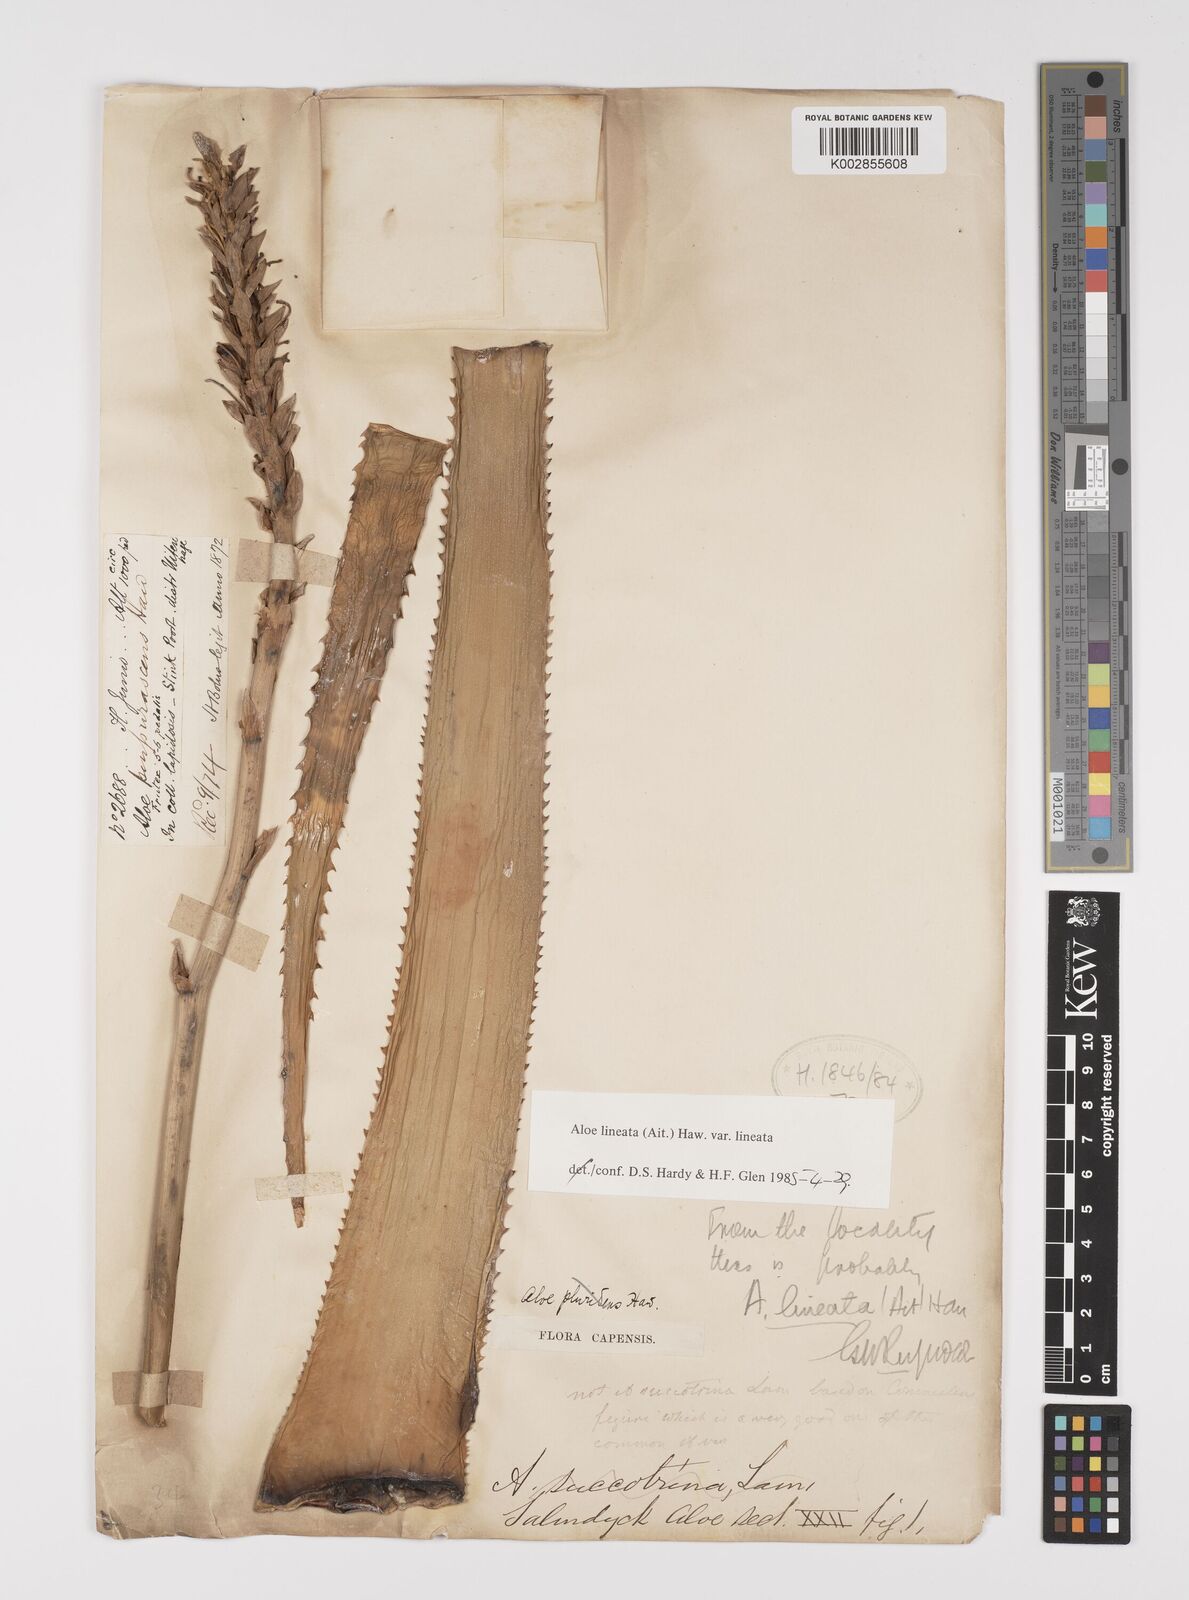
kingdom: Plantae
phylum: Tracheophyta
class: Liliopsida
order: Asparagales
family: Asphodelaceae
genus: Aloe
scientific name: Aloe lineata
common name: Lined red-spined aloe
